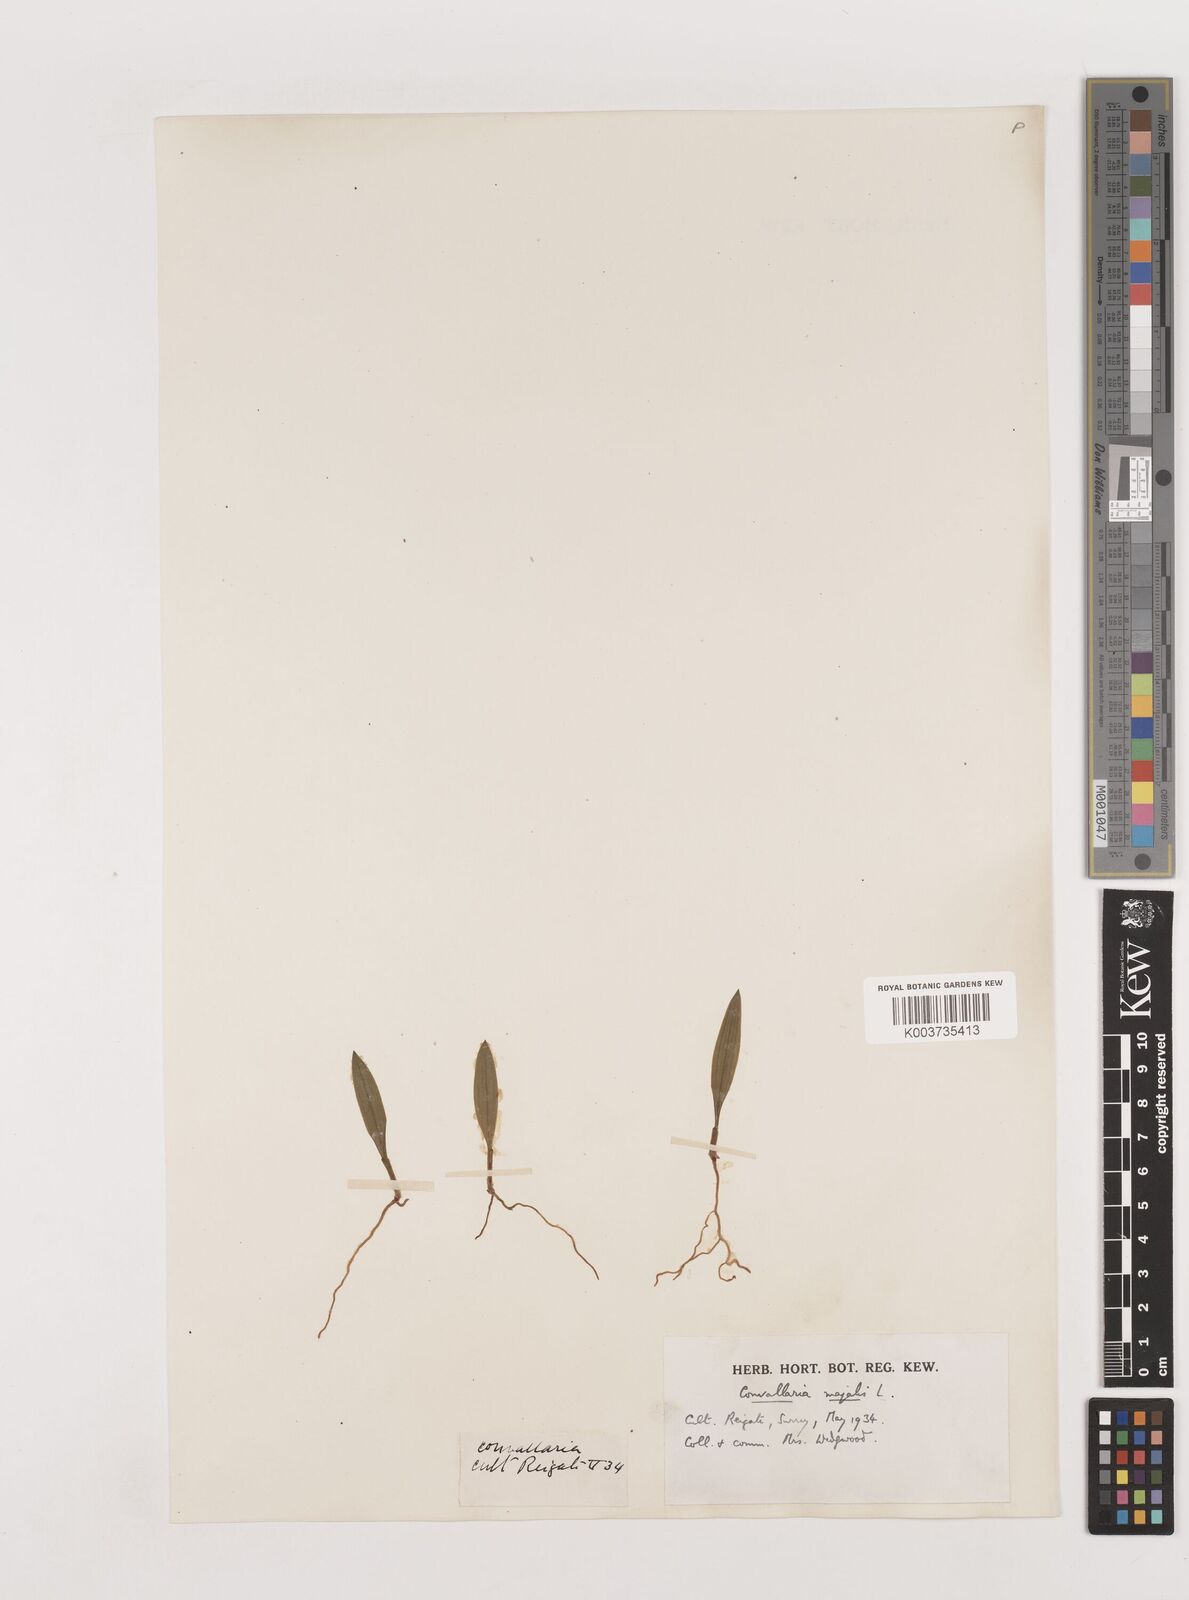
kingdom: Plantae
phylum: Tracheophyta
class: Liliopsida
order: Asparagales
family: Asparagaceae
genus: Convallaria
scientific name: Convallaria majalis
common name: Lily-of-the-valley
